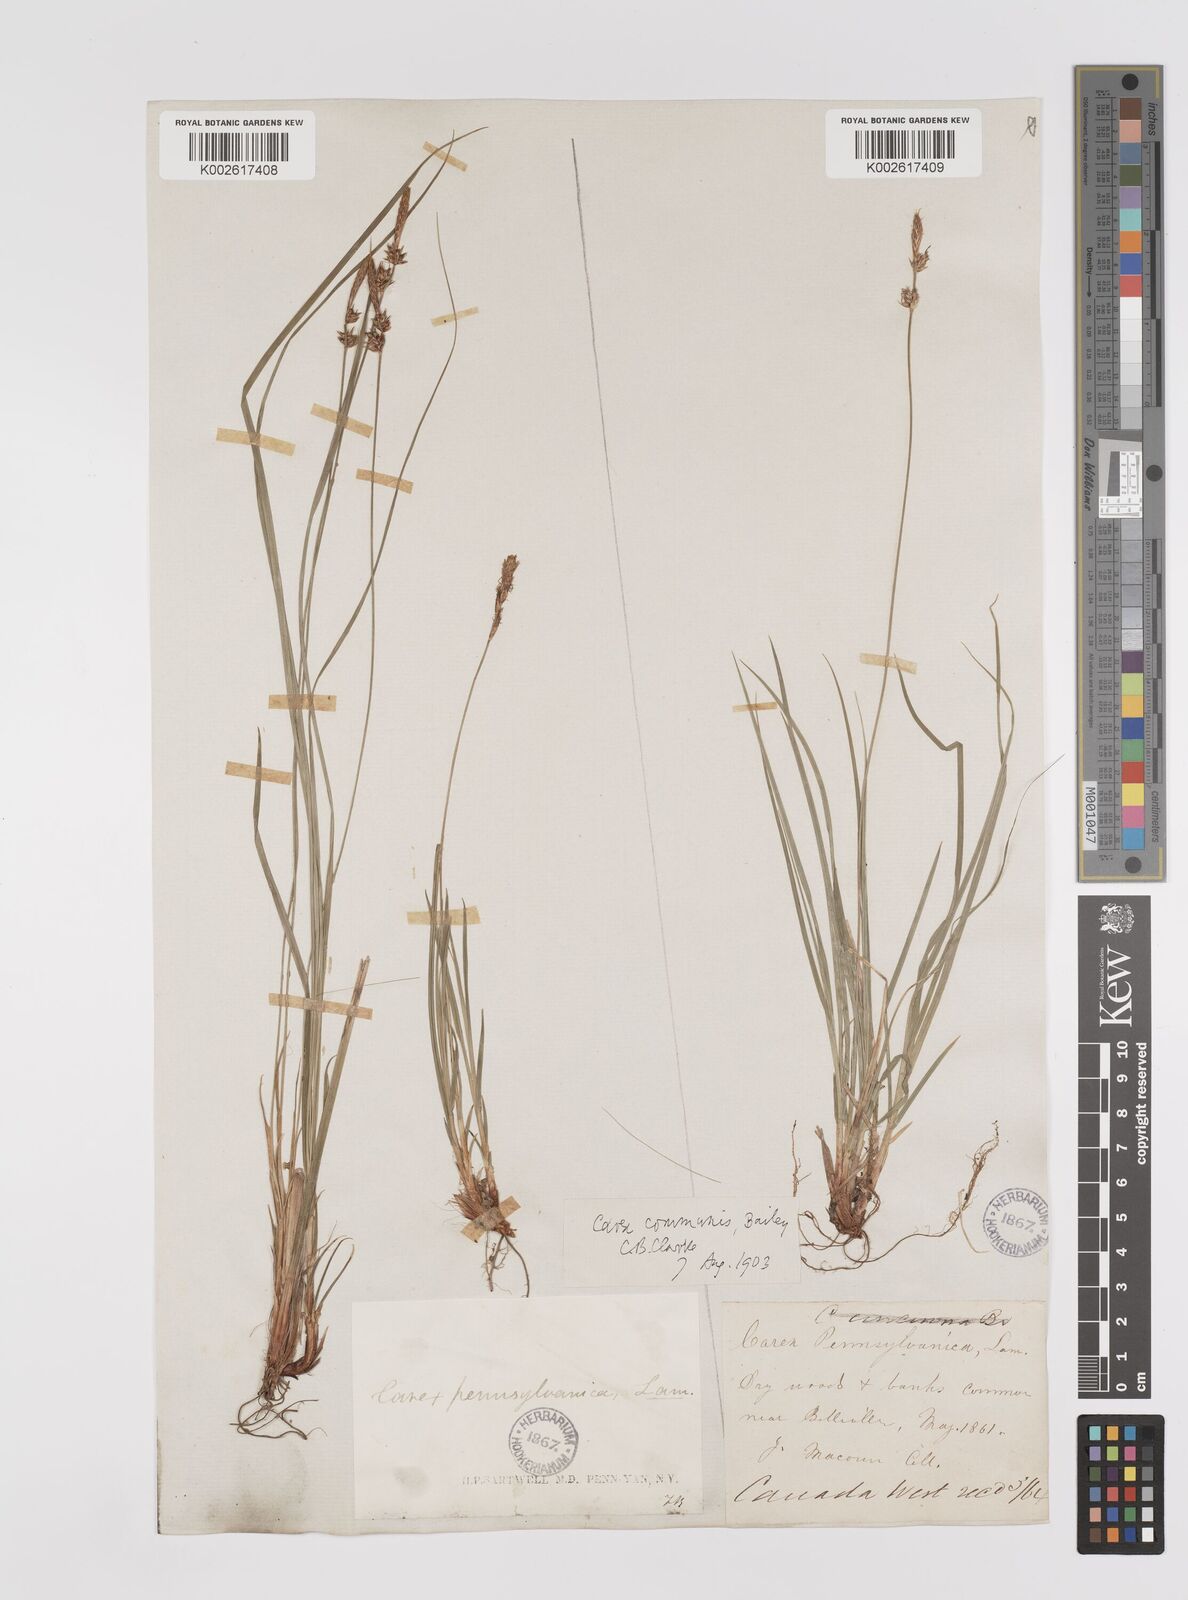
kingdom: Plantae
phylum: Tracheophyta
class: Liliopsida
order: Poales
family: Cyperaceae
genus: Carex
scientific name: Carex communis
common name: Colonial oak sedge
